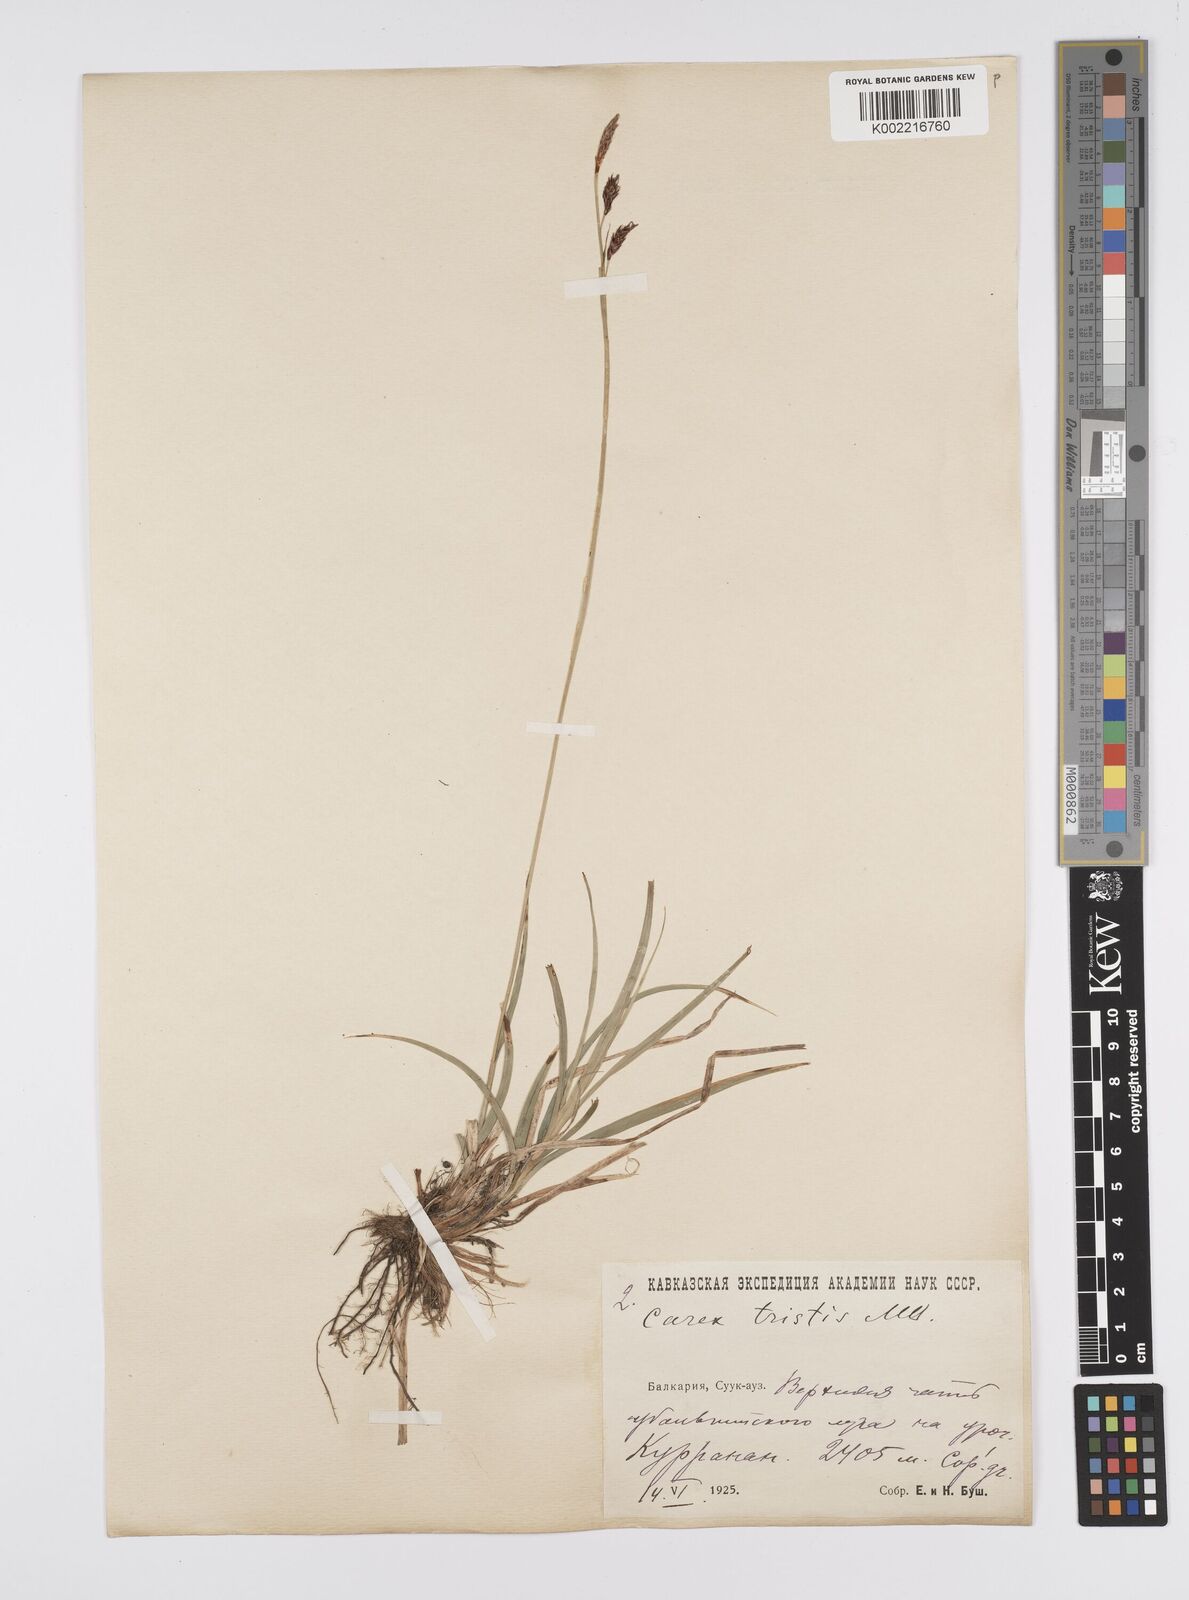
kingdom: Plantae
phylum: Tracheophyta
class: Liliopsida
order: Poales
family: Cyperaceae
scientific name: Cyperaceae
